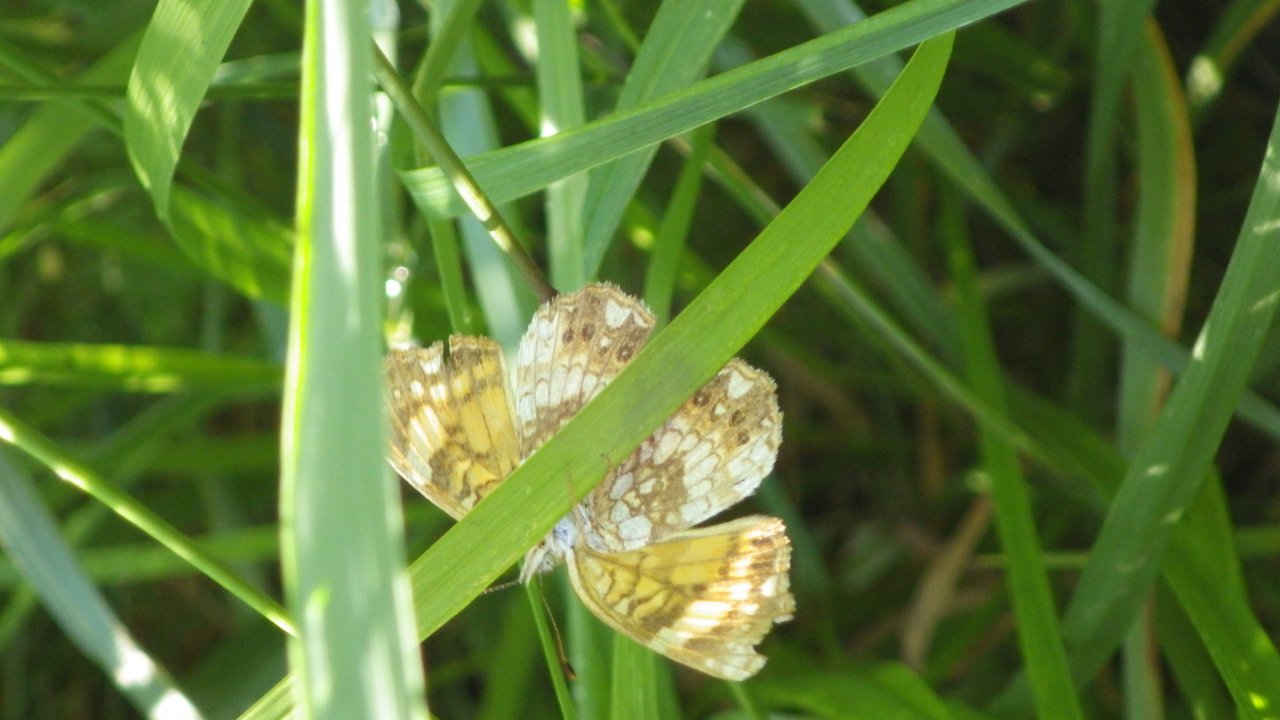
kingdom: Animalia
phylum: Arthropoda
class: Insecta
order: Lepidoptera
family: Nymphalidae
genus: Chlosyne
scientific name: Chlosyne nycteis
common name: Silvery Checkerspot
